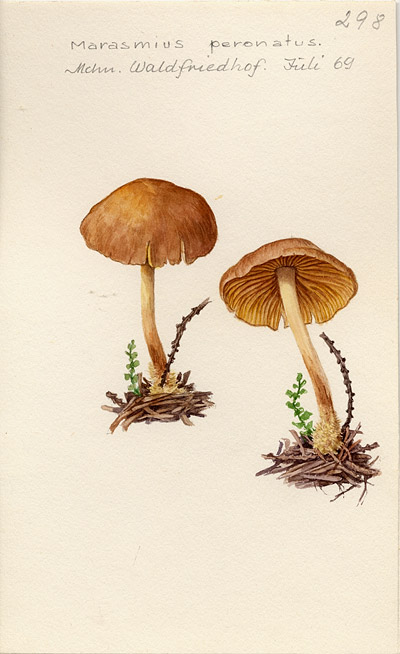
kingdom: Fungi
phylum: Basidiomycota
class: Agaricomycetes
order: Agaricales
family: Omphalotaceae
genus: Collybiopsis
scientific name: Collybiopsis peronata
